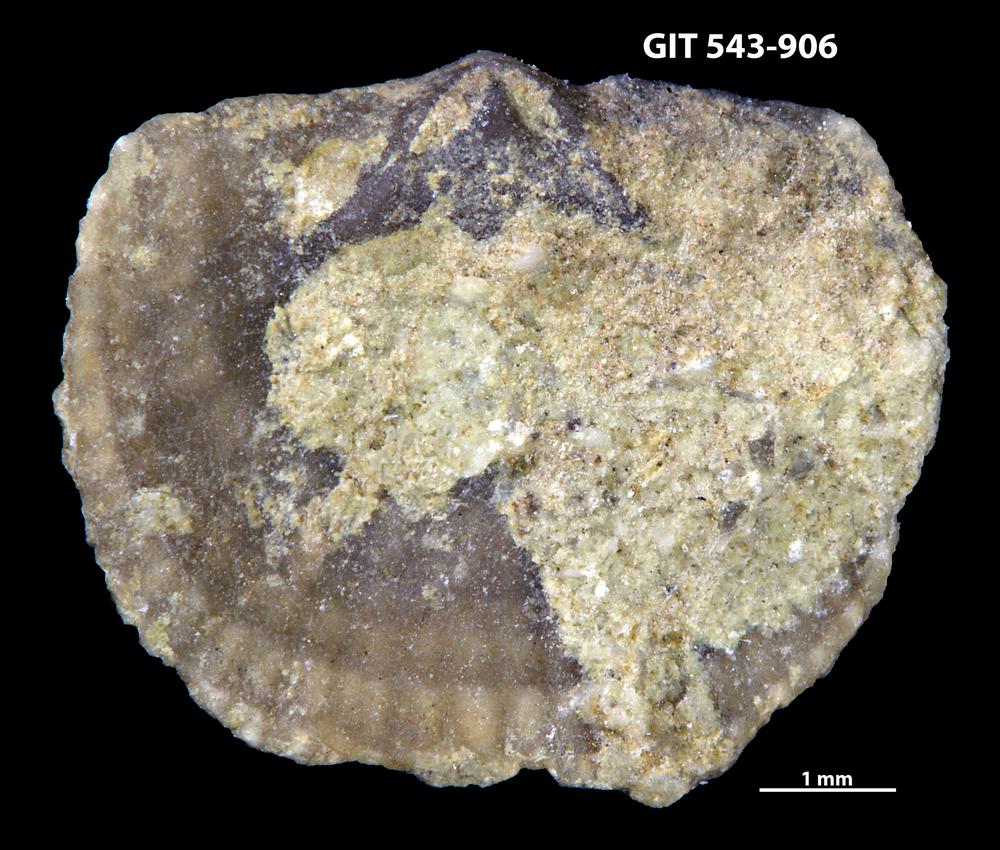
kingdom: Animalia
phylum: Brachiopoda
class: Rhynchonellata
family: Clitambonitidae
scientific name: Clitambonitidae
